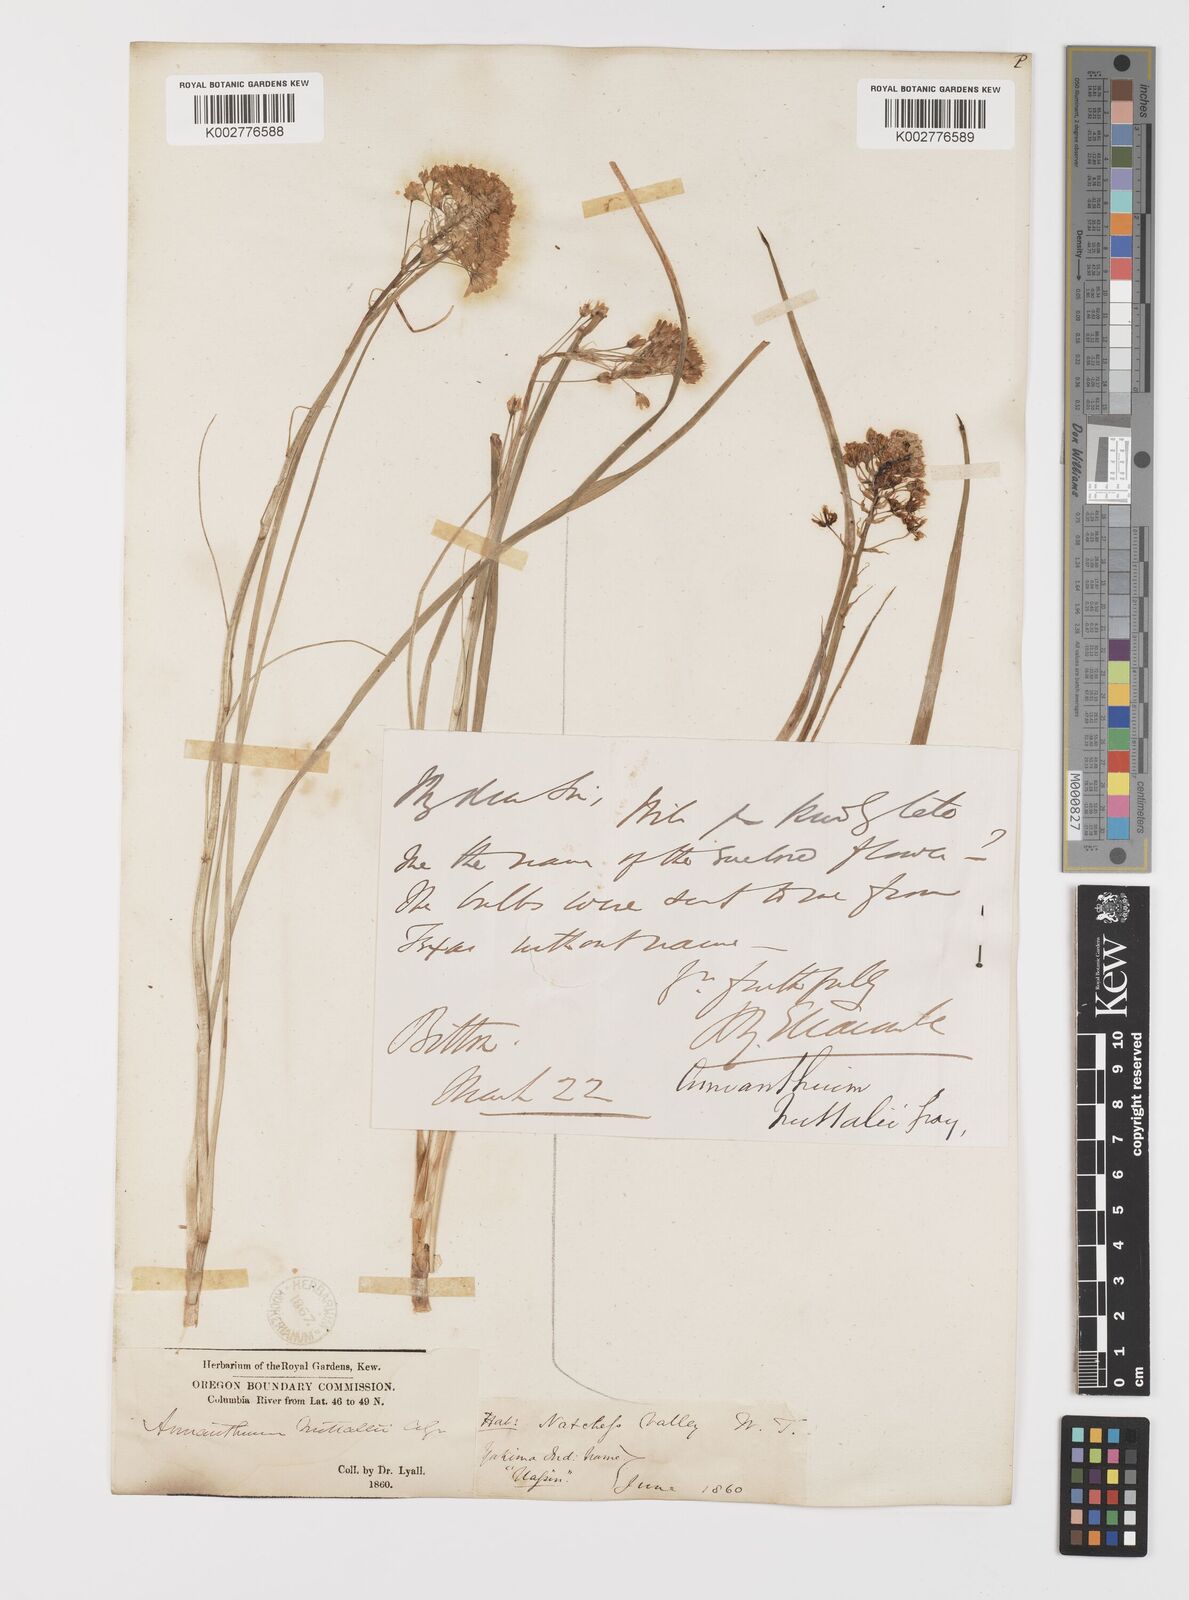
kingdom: Plantae
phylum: Tracheophyta
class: Liliopsida
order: Liliales
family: Melanthiaceae
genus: Toxicoscordion
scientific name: Toxicoscordion nuttallii
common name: Poison sego
